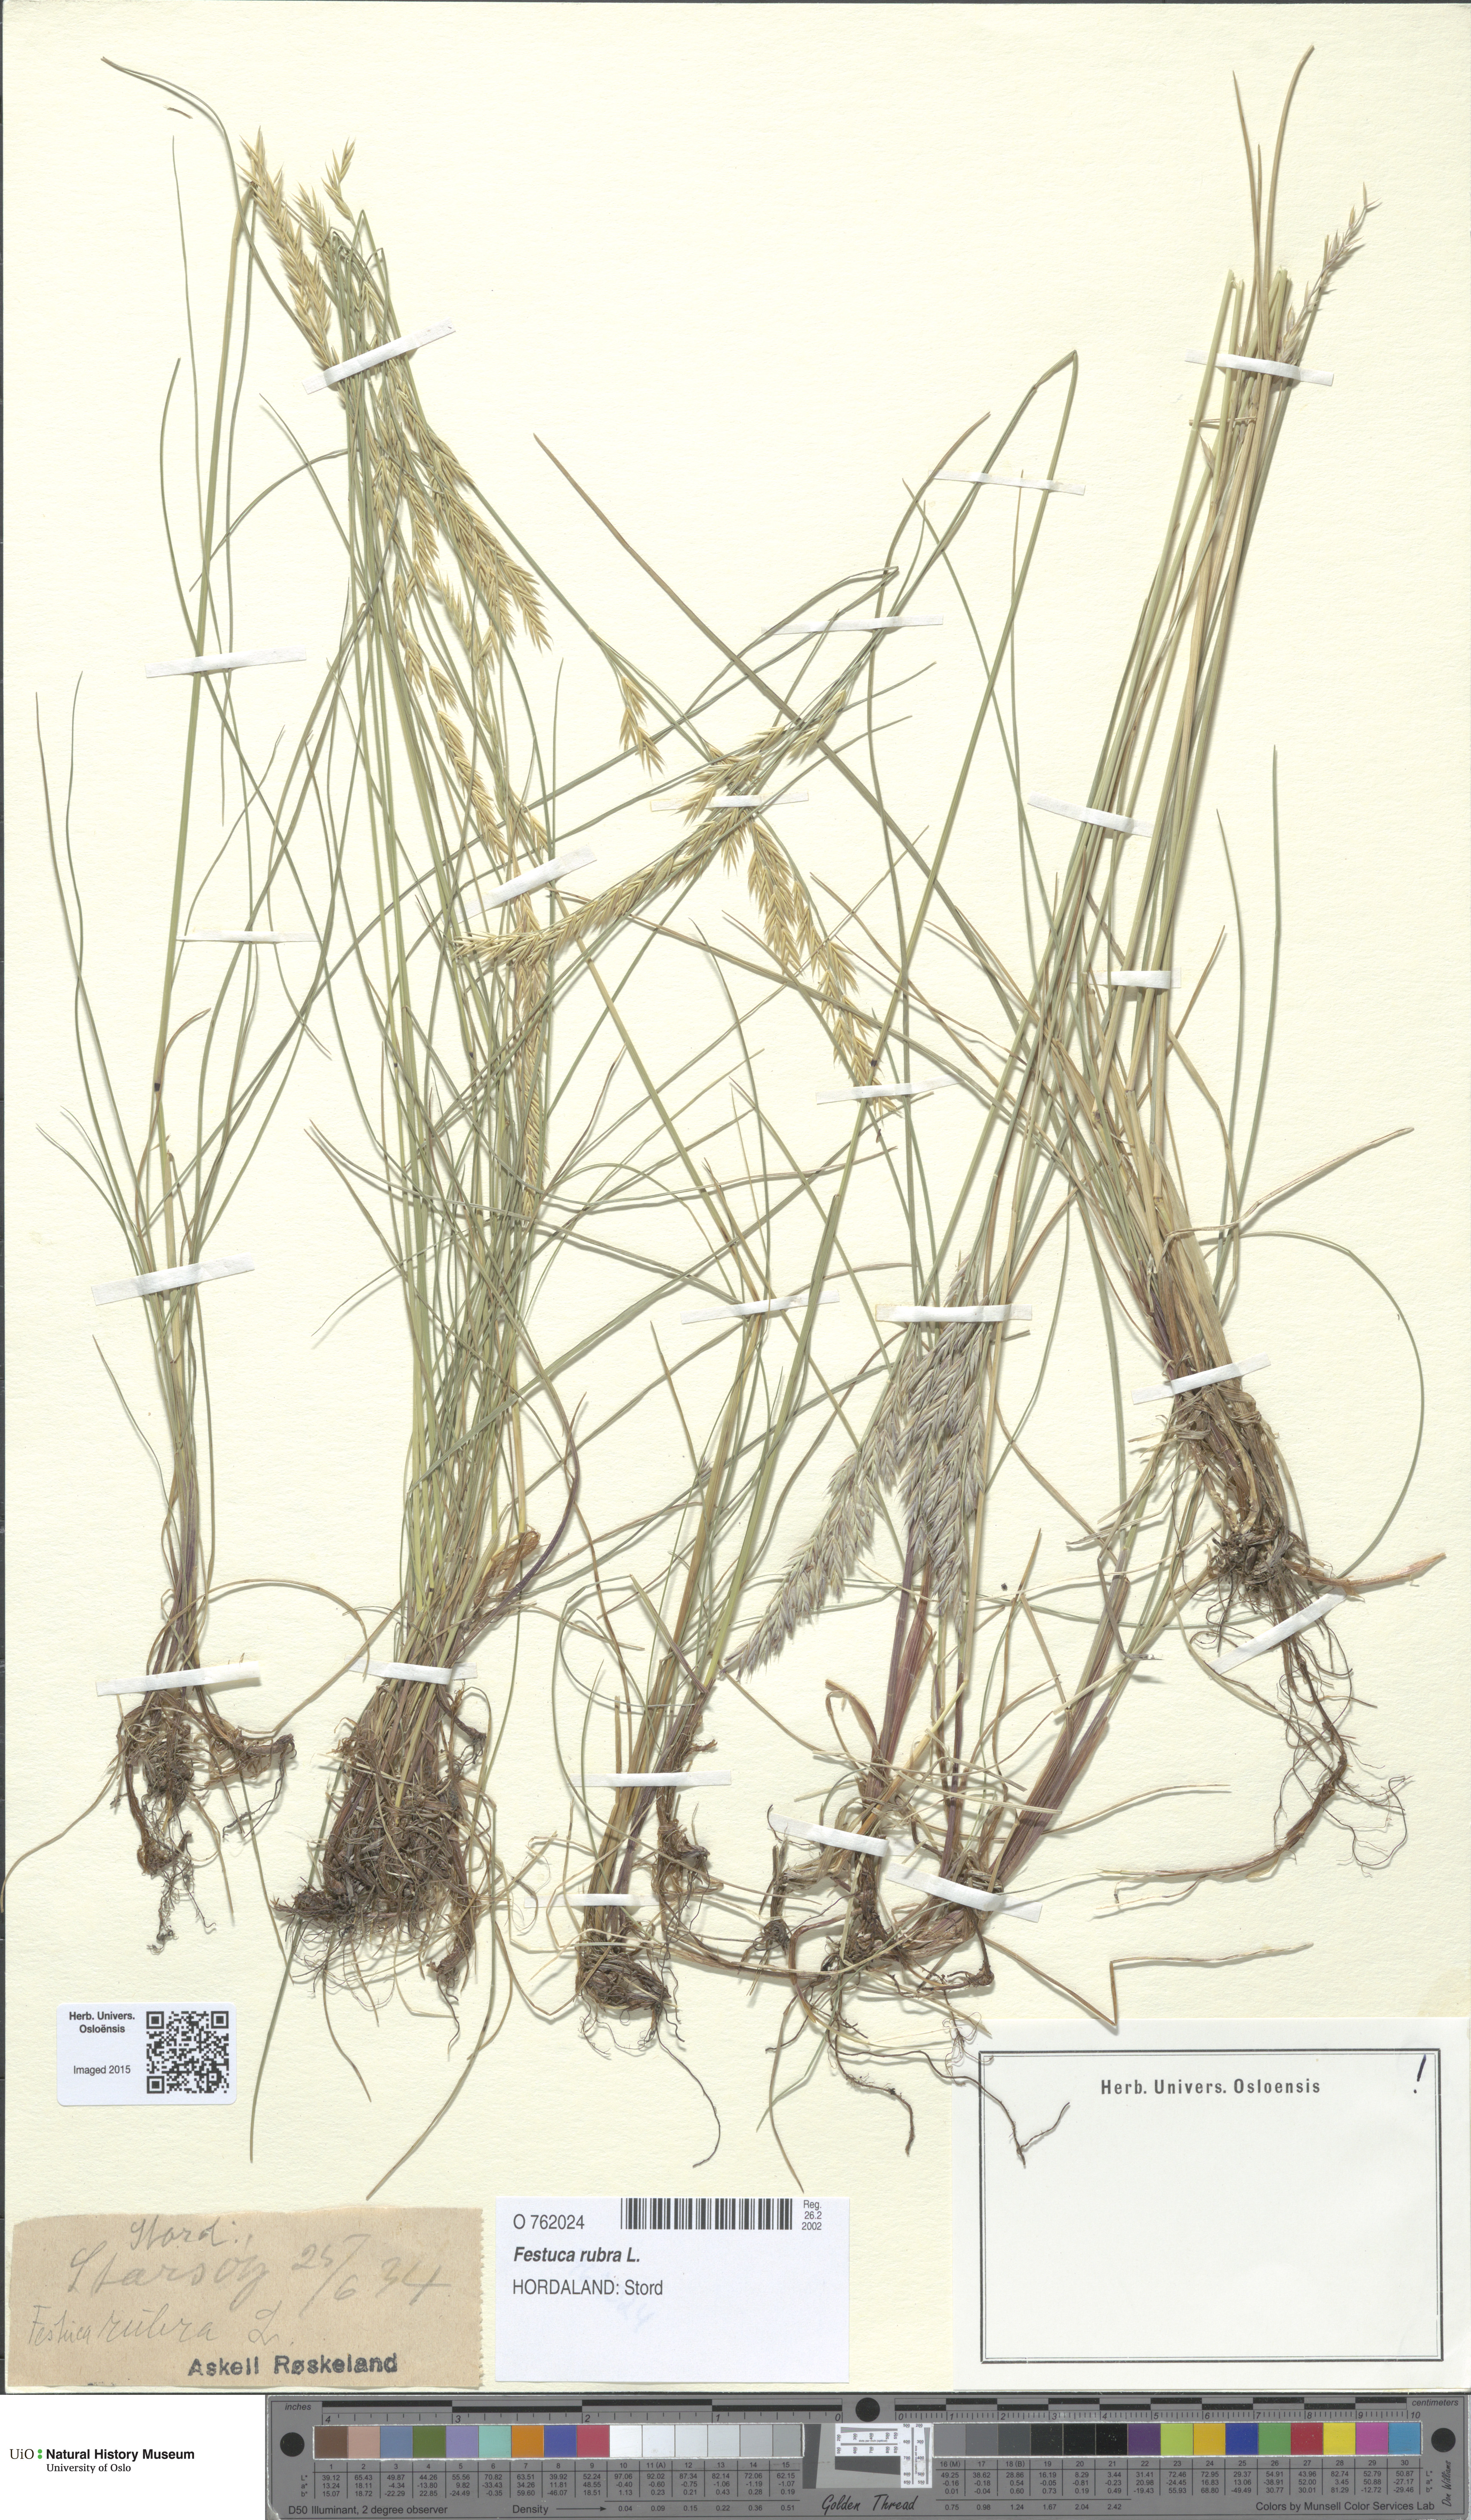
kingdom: Plantae
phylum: Tracheophyta
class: Liliopsida
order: Poales
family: Poaceae
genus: Festuca
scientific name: Festuca rubra
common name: Red fescue
